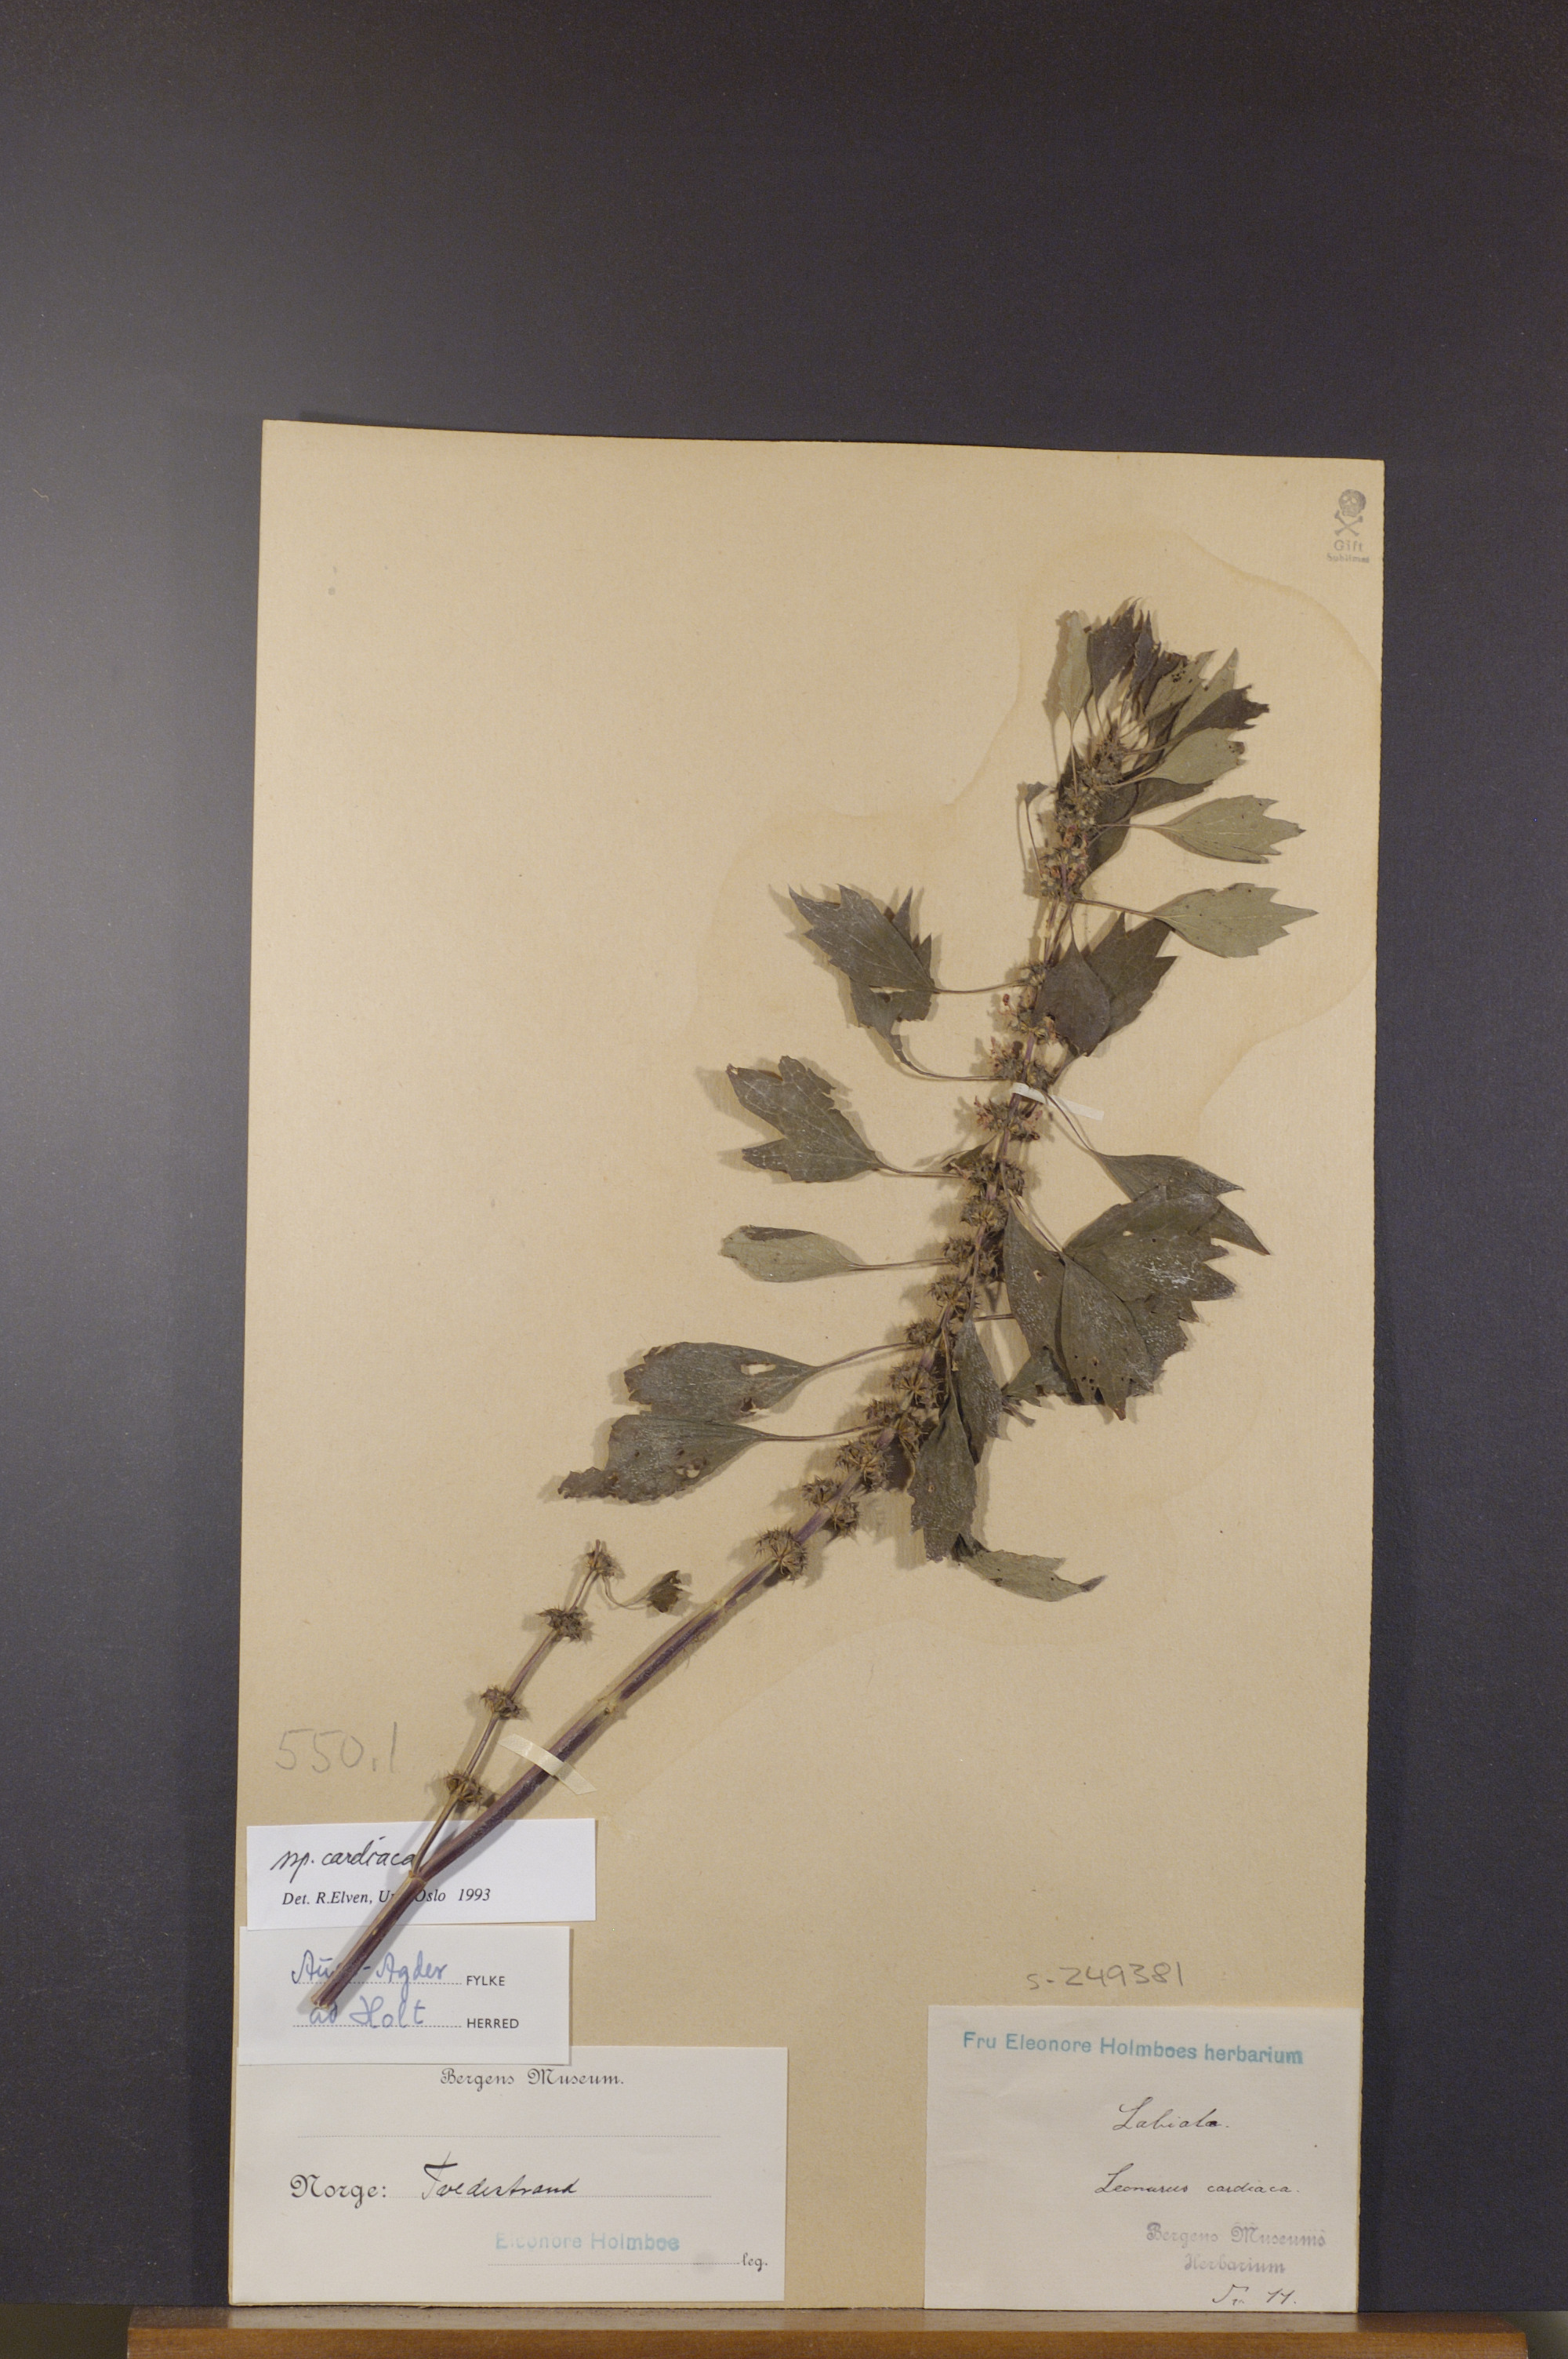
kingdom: Plantae
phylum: Tracheophyta
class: Magnoliopsida
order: Lamiales
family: Lamiaceae
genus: Leonurus
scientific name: Leonurus cardiaca
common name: Motherwort
